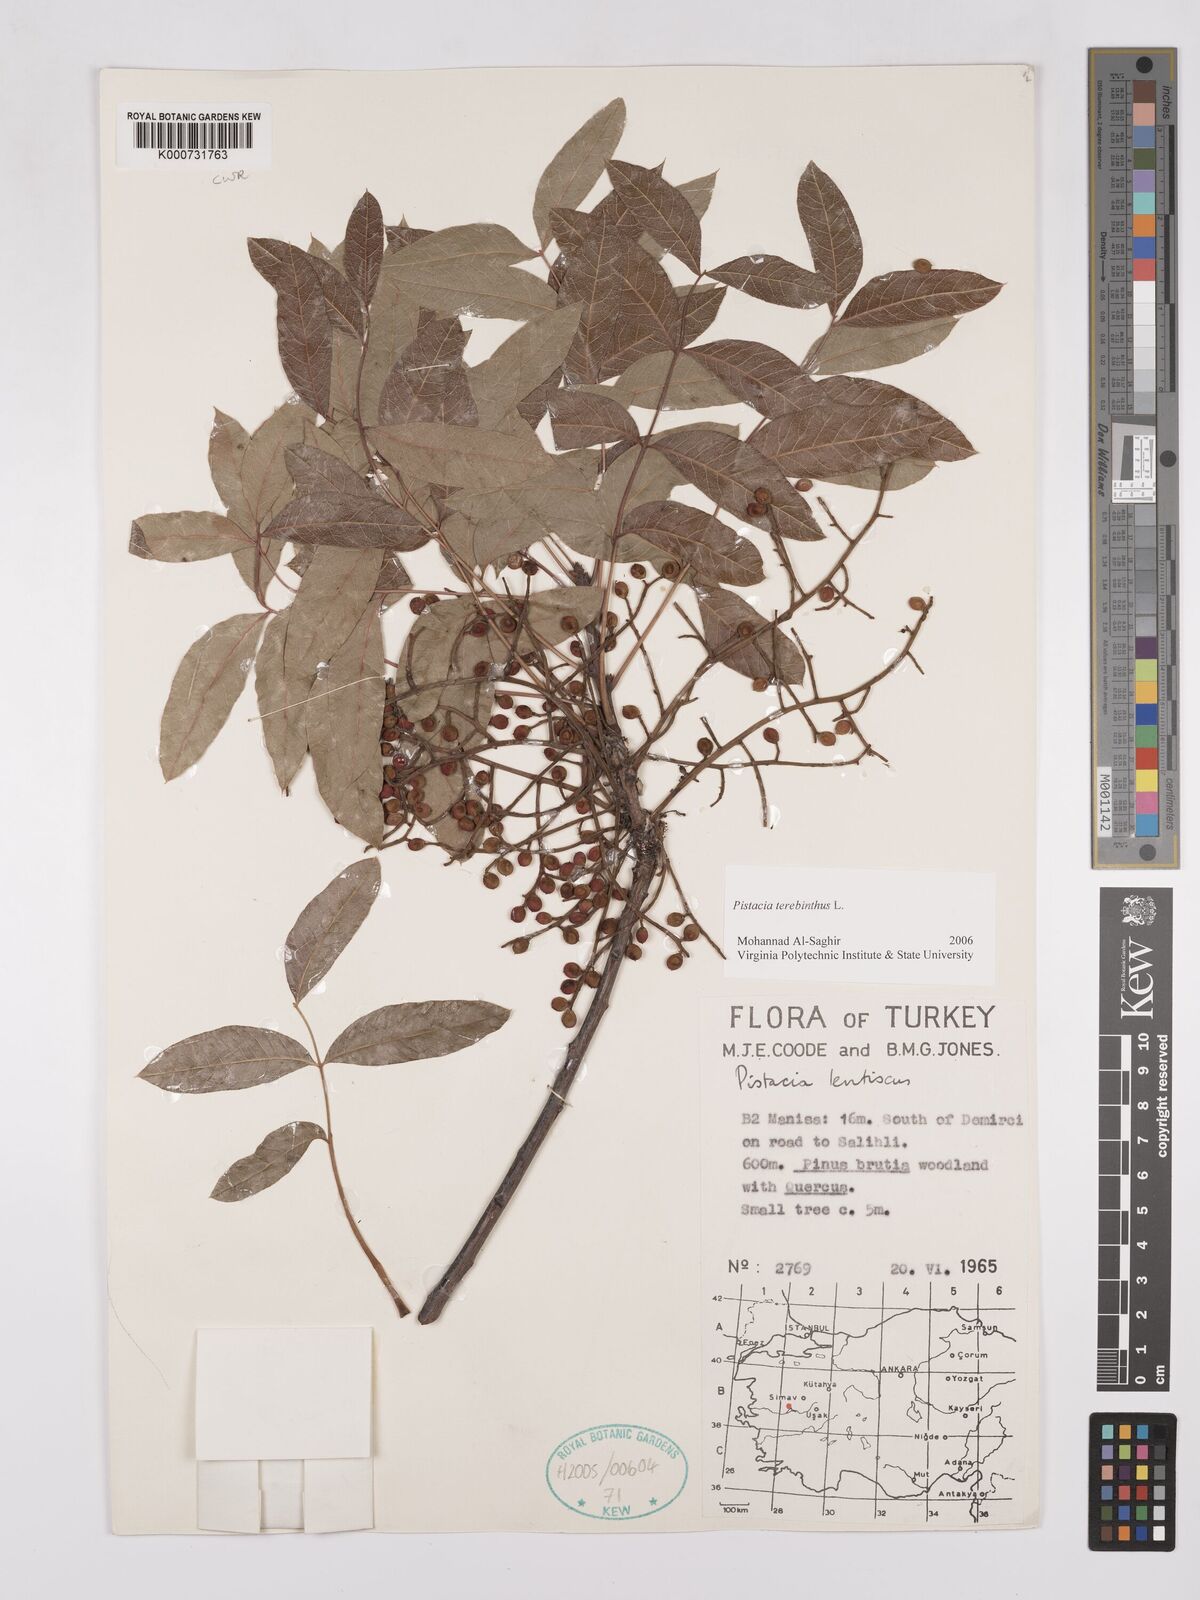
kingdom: Plantae
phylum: Tracheophyta
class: Magnoliopsida
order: Sapindales
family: Anacardiaceae
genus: Pistacia
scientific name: Pistacia terebinthus
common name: Terebinth
